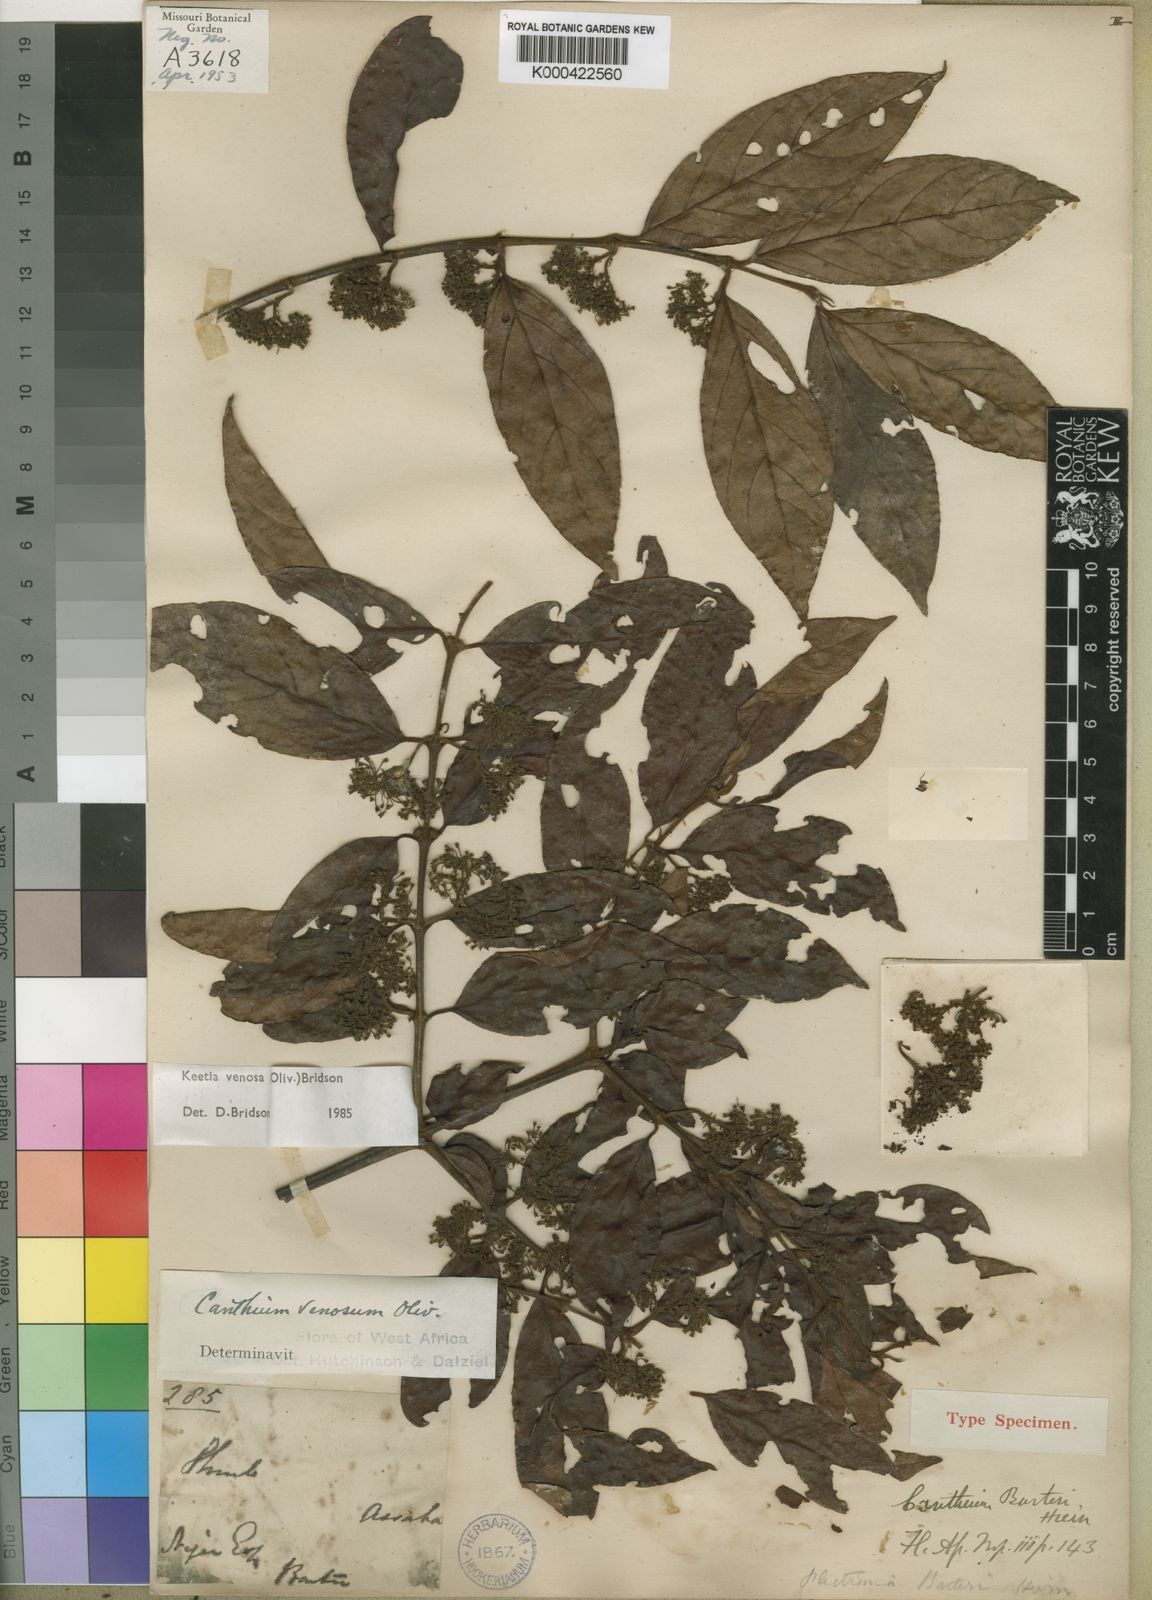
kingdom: Plantae
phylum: Tracheophyta
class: Magnoliopsida
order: Gentianales
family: Rubiaceae
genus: Keetia
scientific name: Keetia venosa
